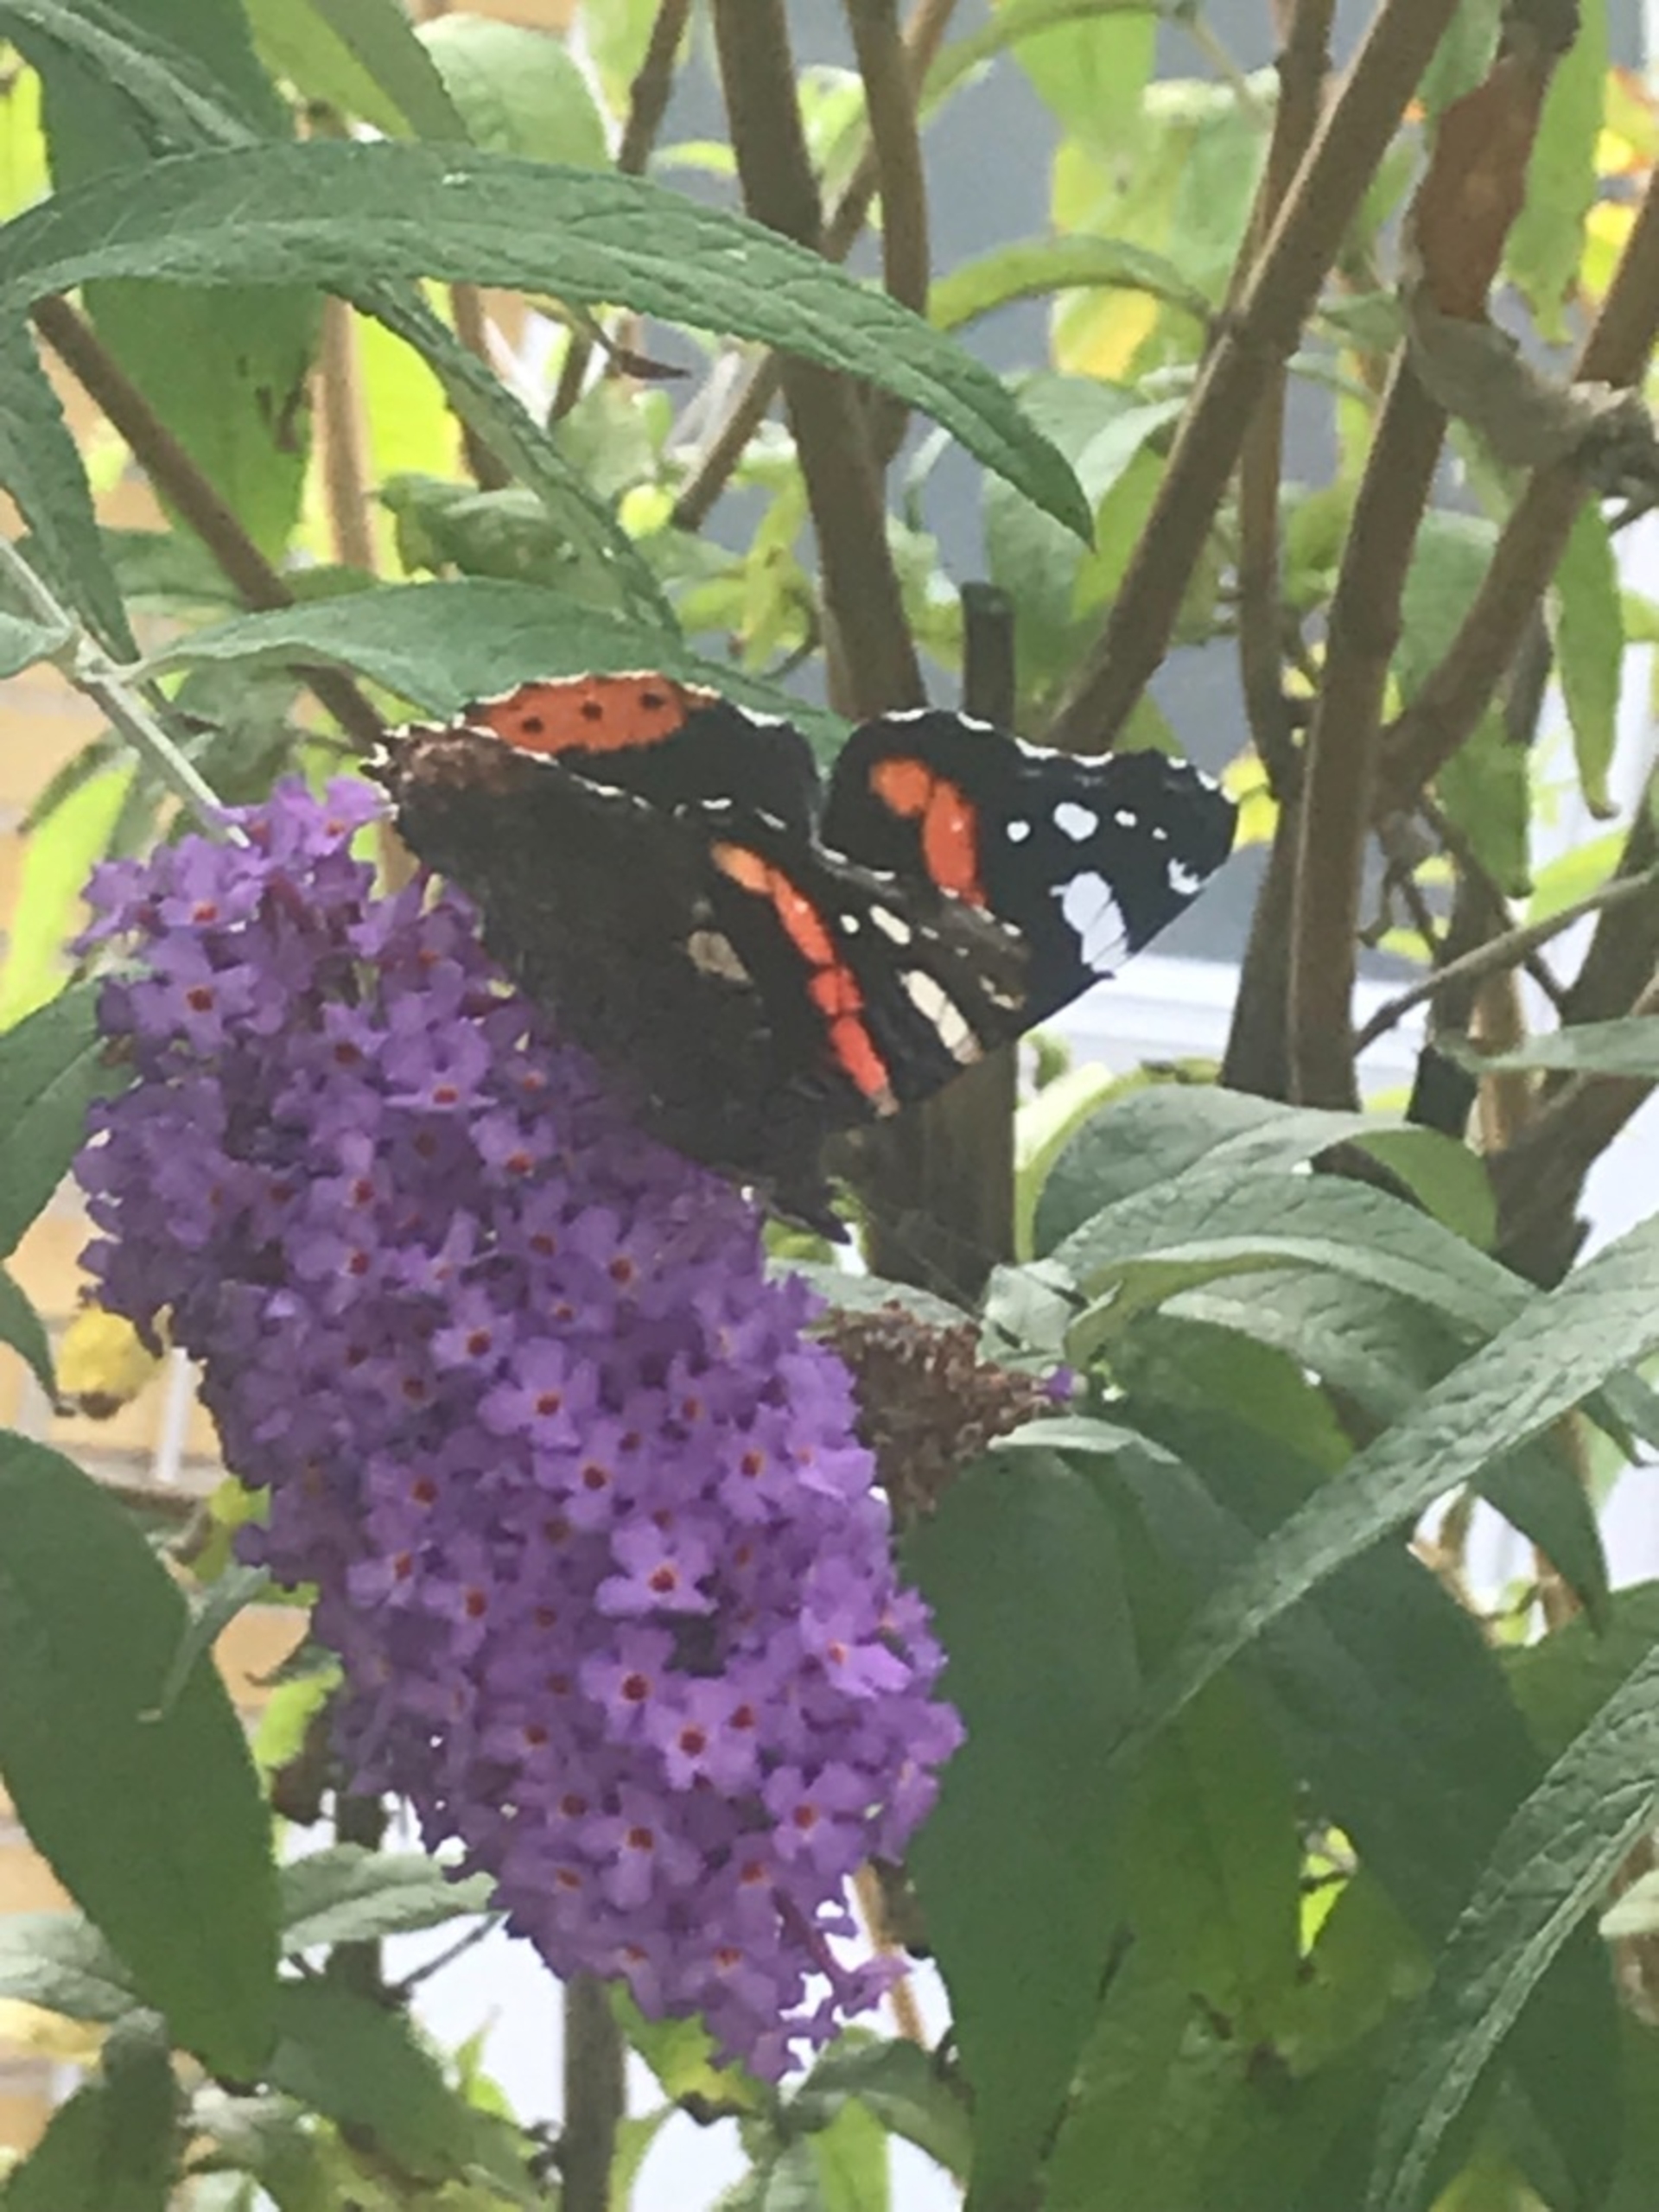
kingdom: Animalia
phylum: Arthropoda
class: Insecta
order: Lepidoptera
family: Nymphalidae
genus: Vanessa
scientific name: Vanessa atalanta
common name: Admiral
